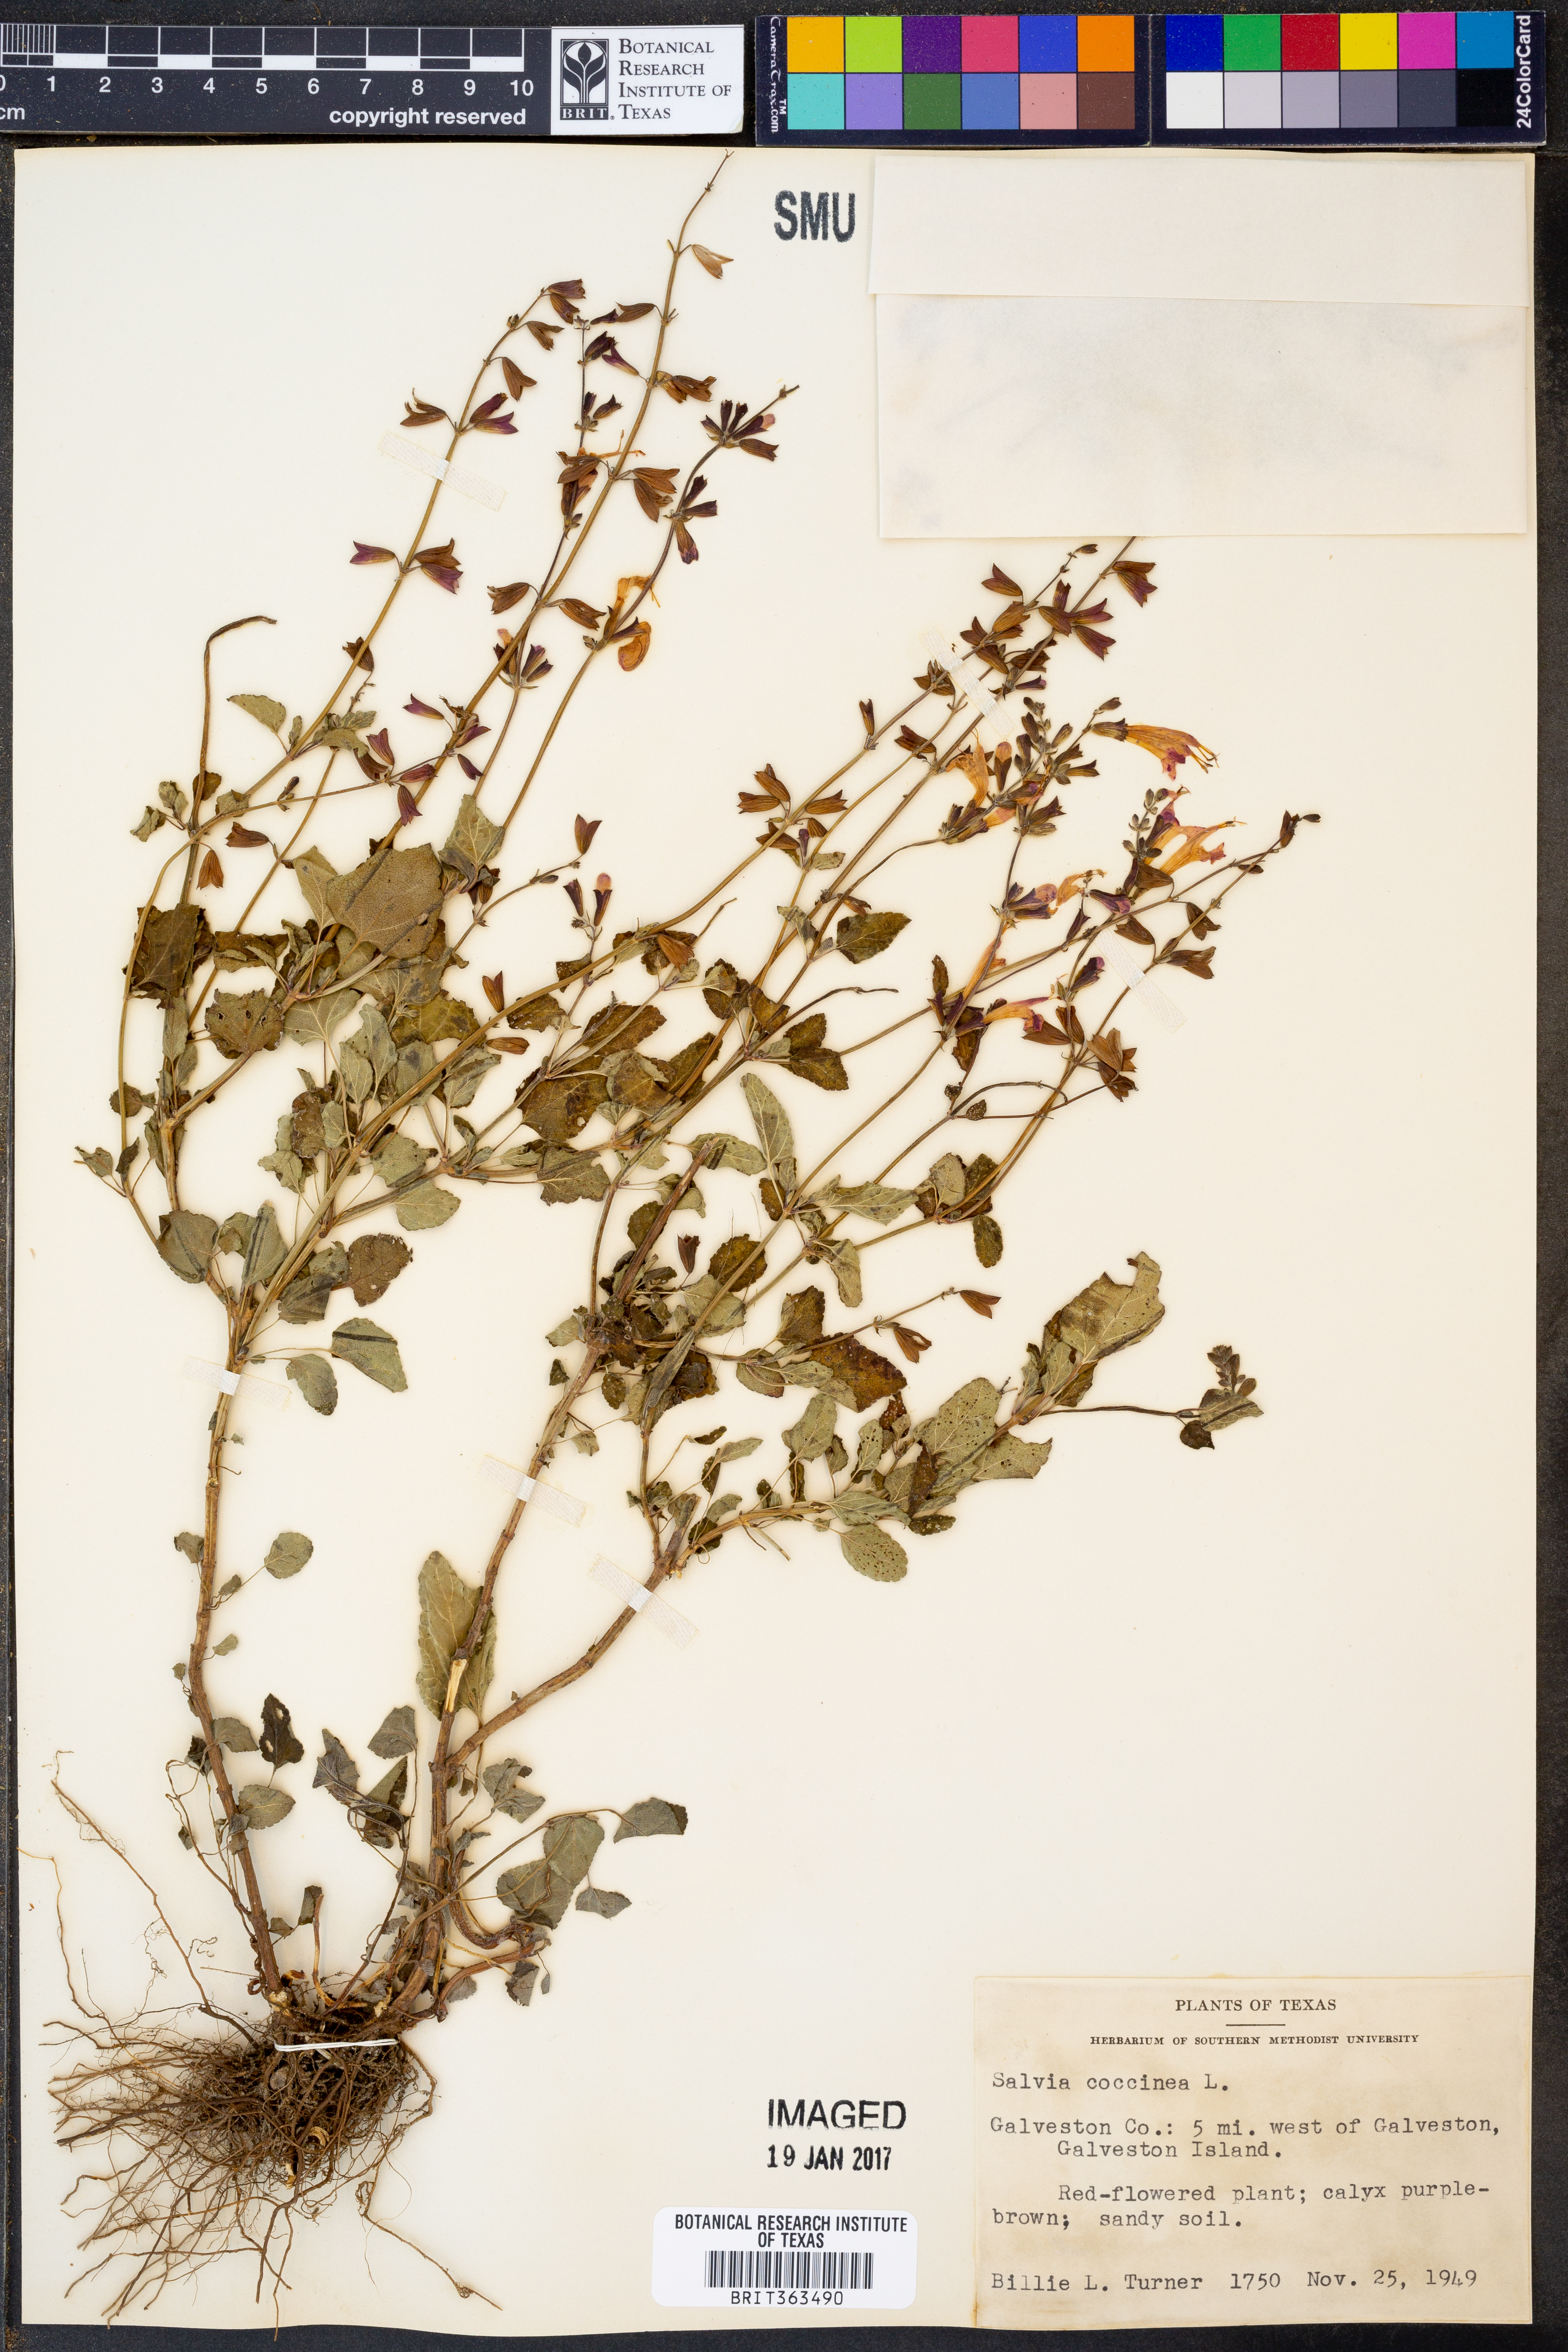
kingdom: Plantae
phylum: Tracheophyta
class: Magnoliopsida
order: Lamiales
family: Lamiaceae
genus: Salvia
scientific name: Salvia coccinea
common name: Blood sage
